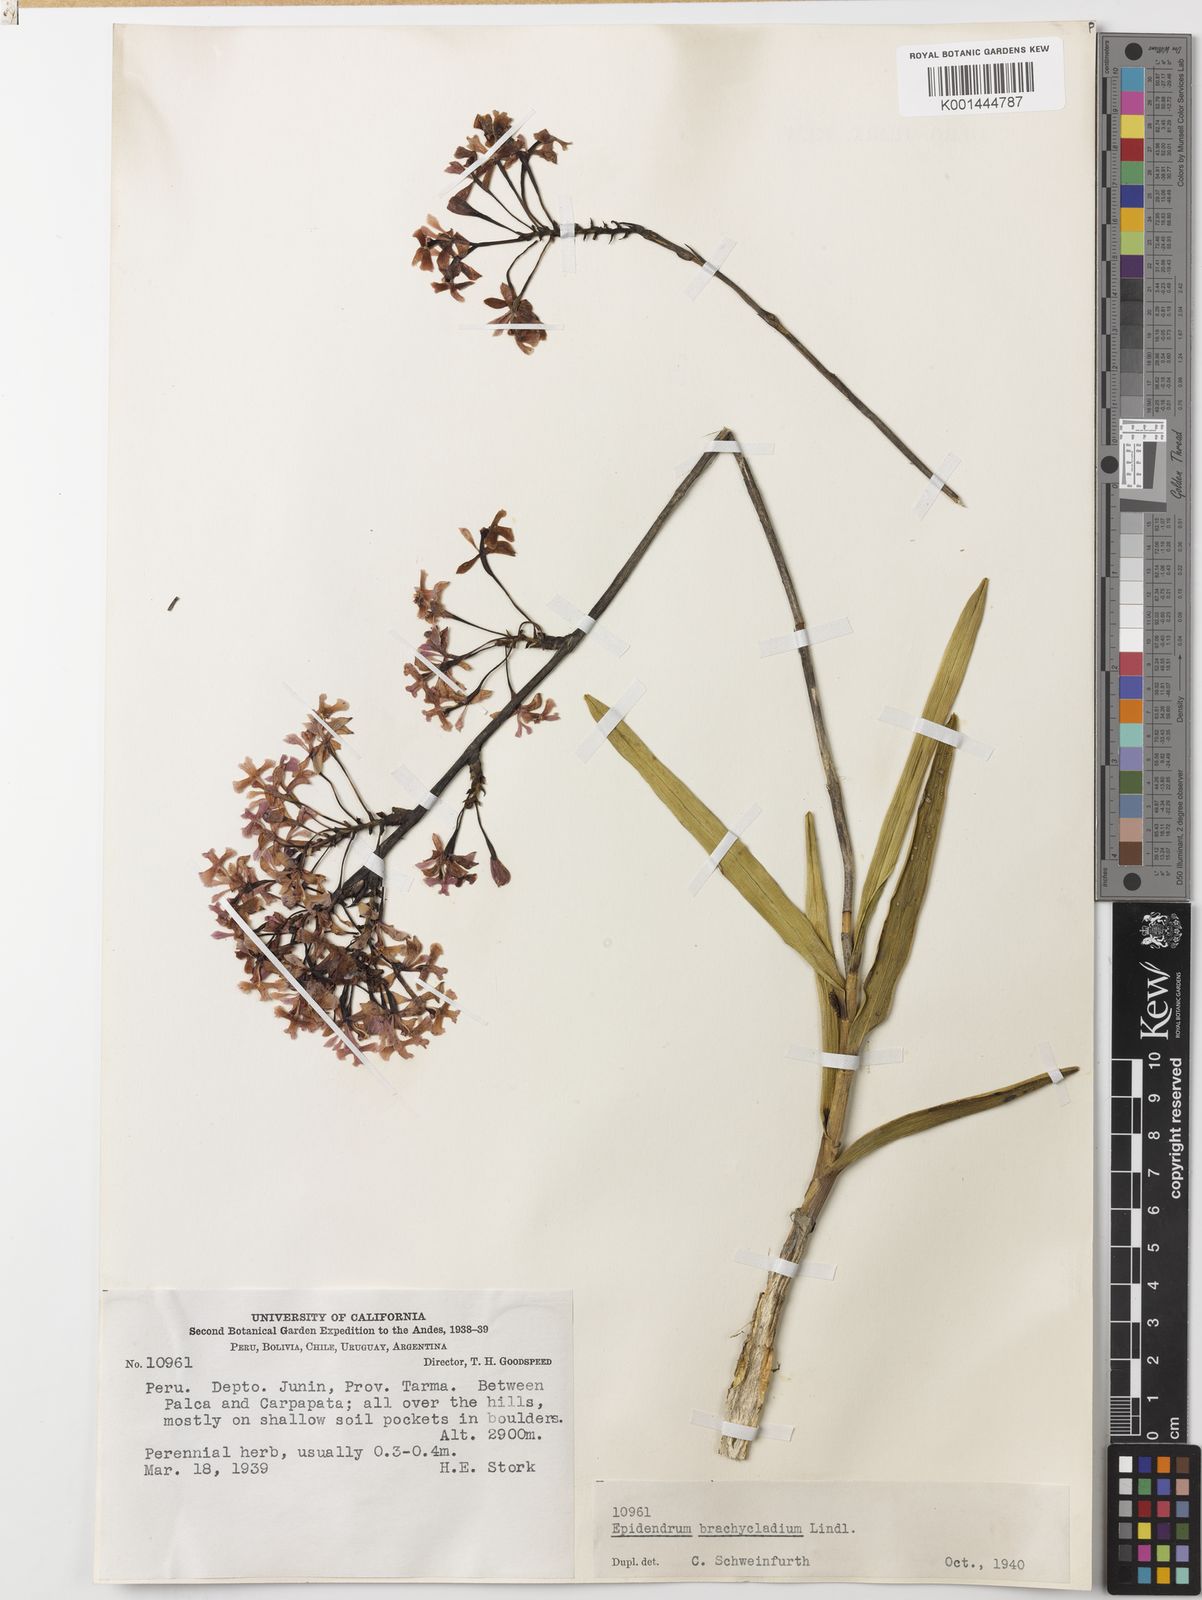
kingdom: Plantae
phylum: Tracheophyta
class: Liliopsida
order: Asparagales
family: Orchidaceae
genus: Prosthechea
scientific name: Prosthechea brachychila
